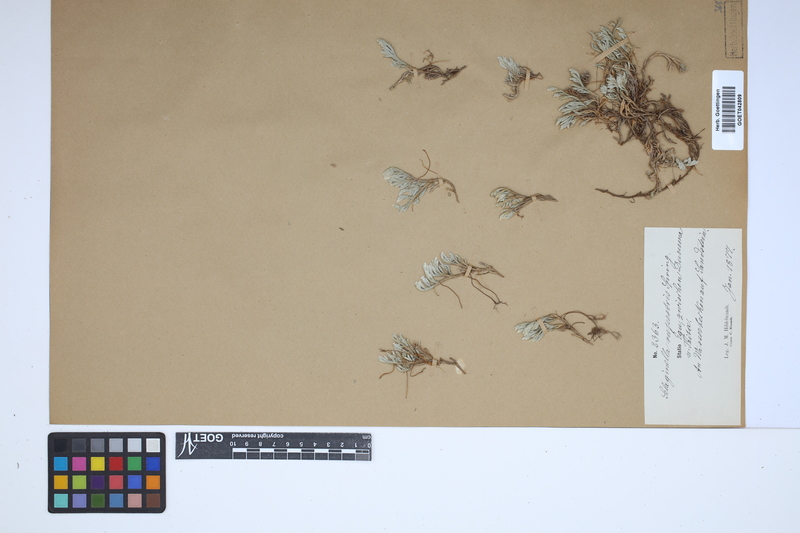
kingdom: Plantae
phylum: Tracheophyta
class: Lycopodiopsida
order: Selaginellales
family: Selaginellaceae
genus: Selaginella
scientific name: Selaginella rupestris
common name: Dwarf spikemoss
